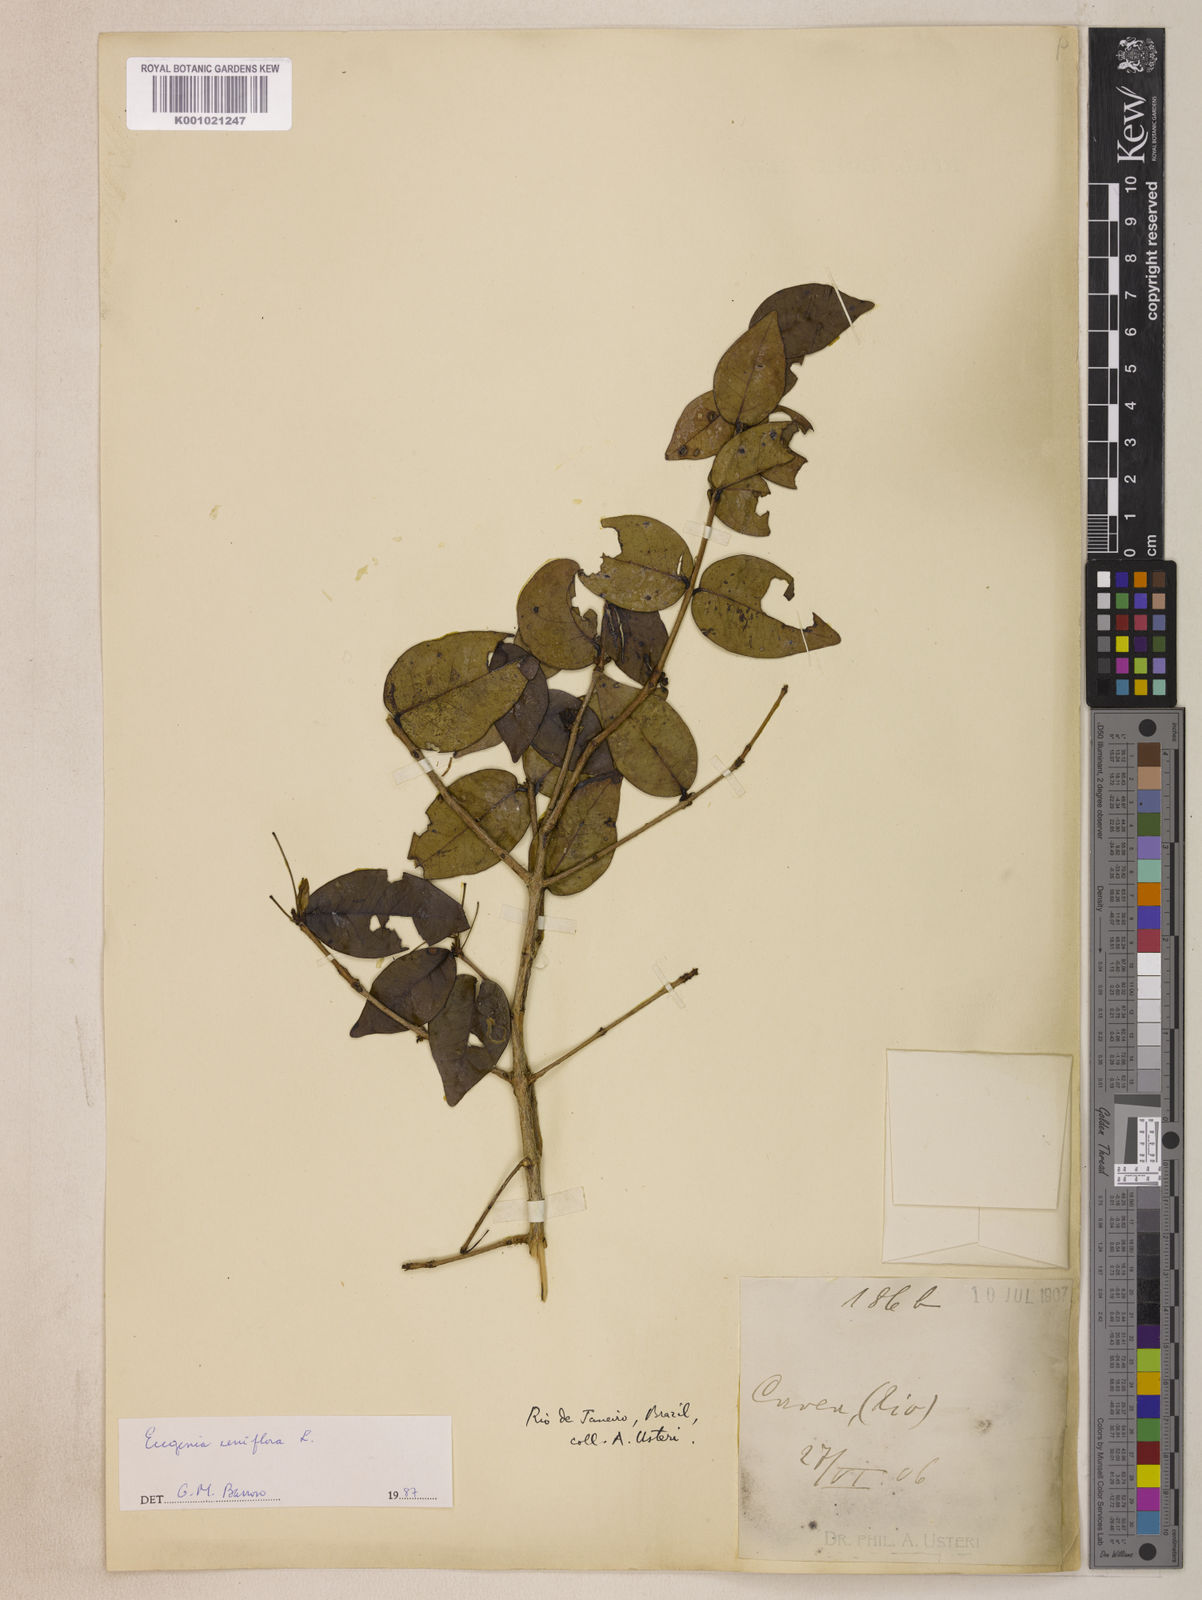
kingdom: Plantae
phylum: Tracheophyta
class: Magnoliopsida
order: Myrtales
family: Myrtaceae
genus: Eugenia
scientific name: Eugenia uniflora
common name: Surinam cherry
